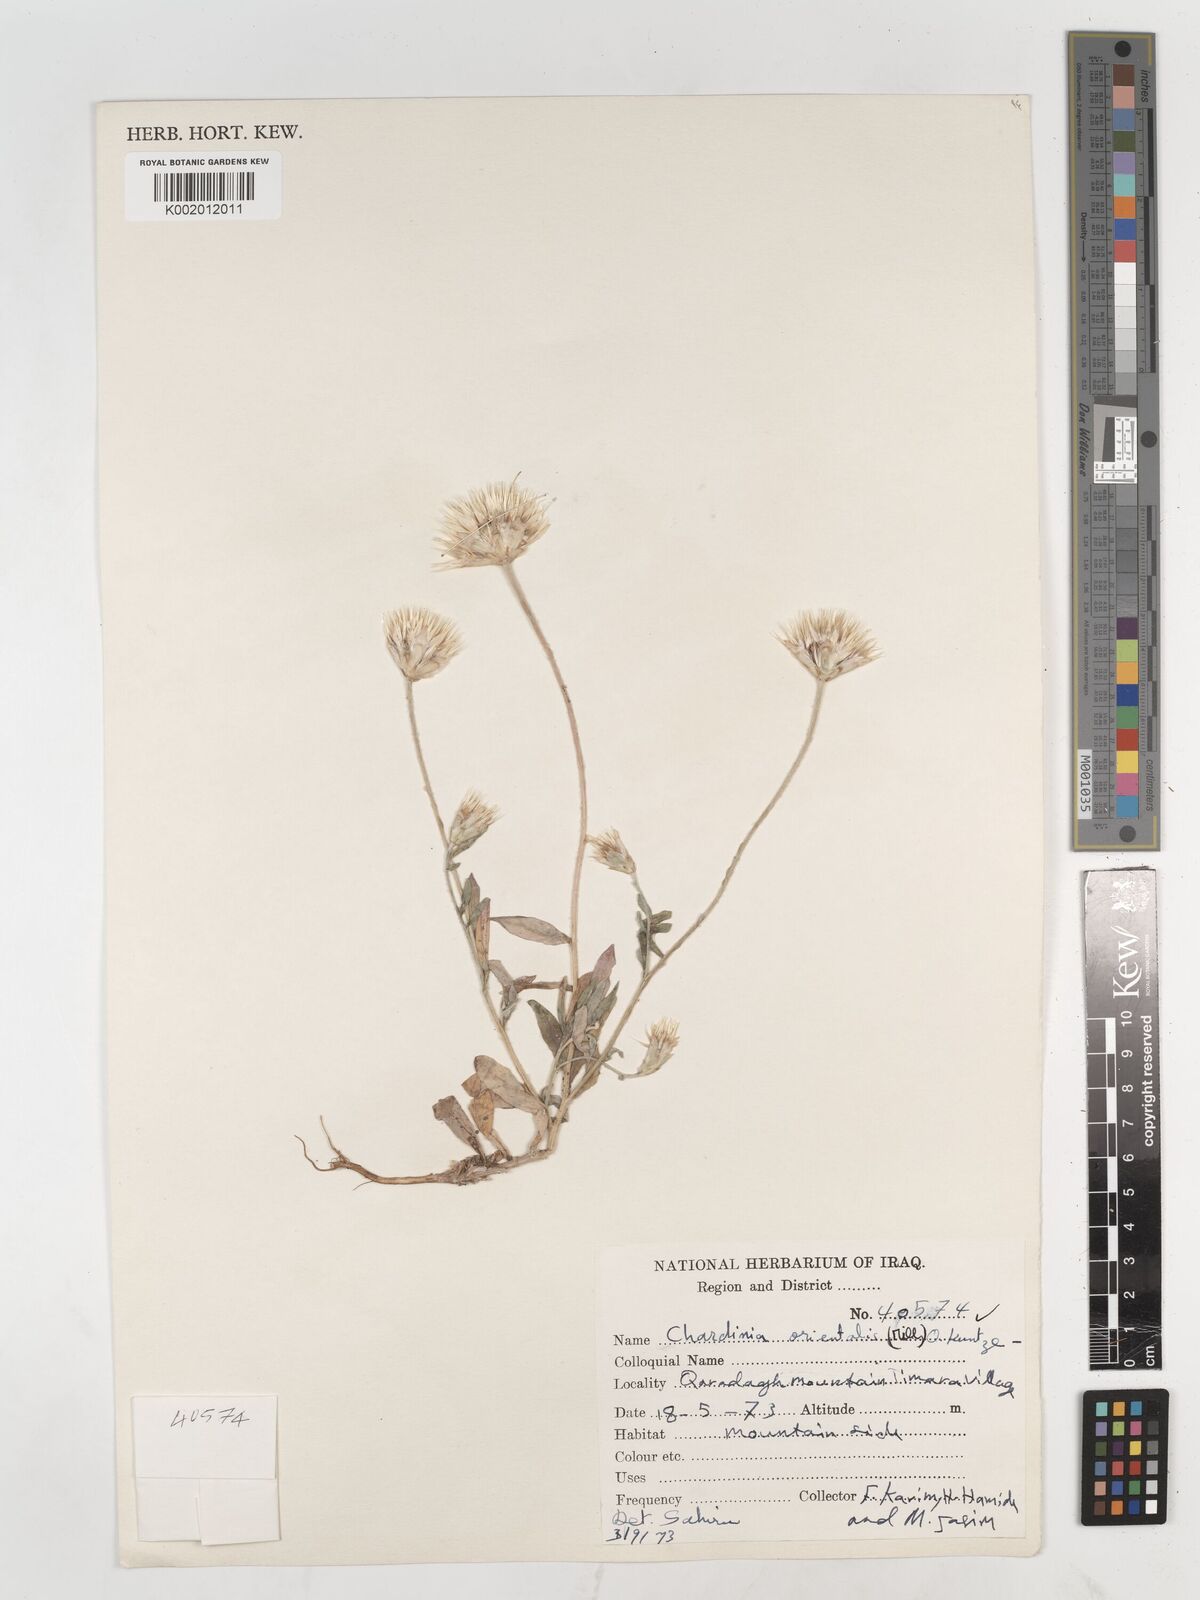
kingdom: Plantae
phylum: Tracheophyta
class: Magnoliopsida
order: Asterales
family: Asteraceae
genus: Chardinia
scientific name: Chardinia orientalis
